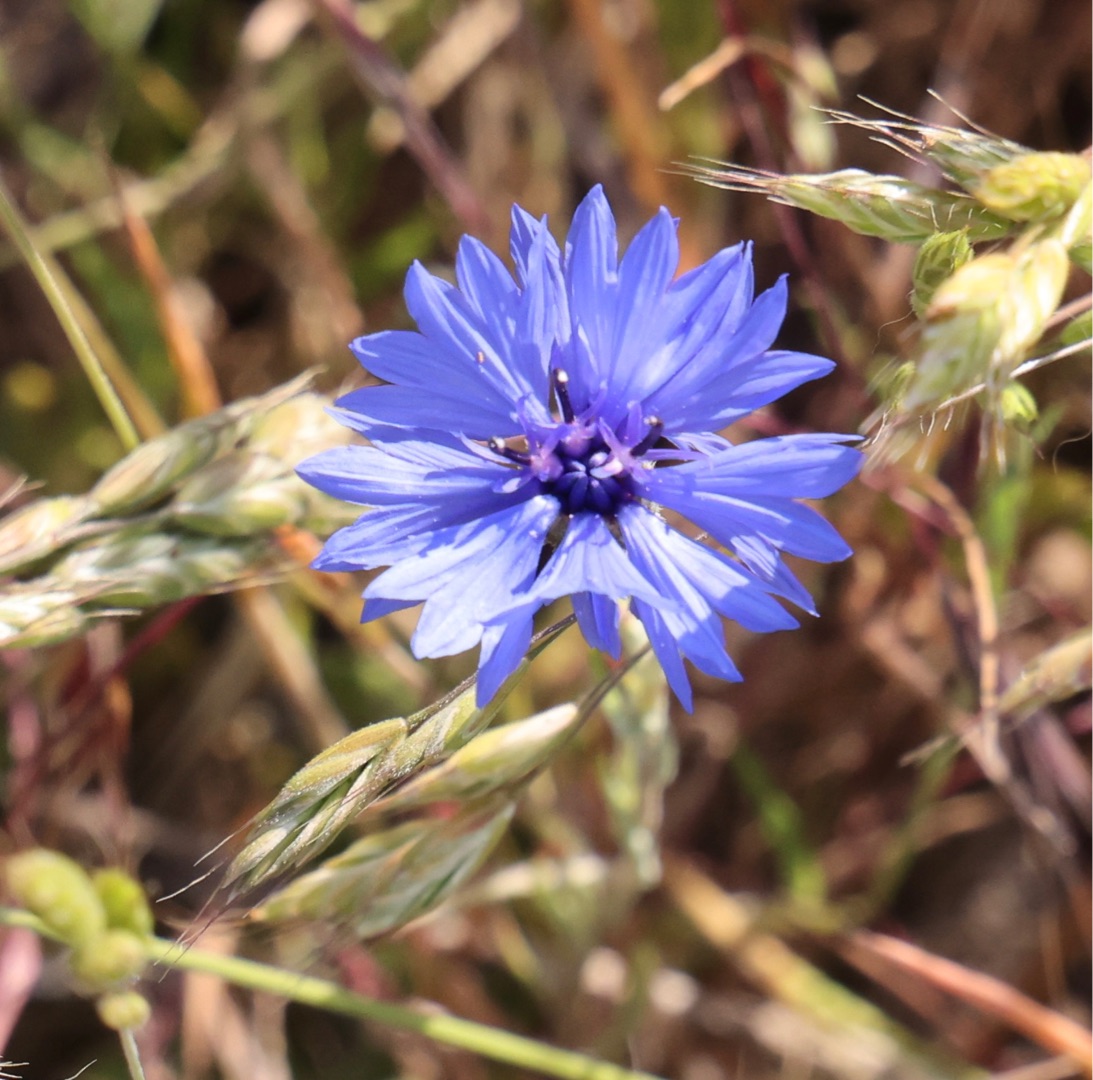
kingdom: Plantae
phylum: Tracheophyta
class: Magnoliopsida
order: Asterales
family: Asteraceae
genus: Centaurea
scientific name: Centaurea cyanus
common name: Kornblomst
